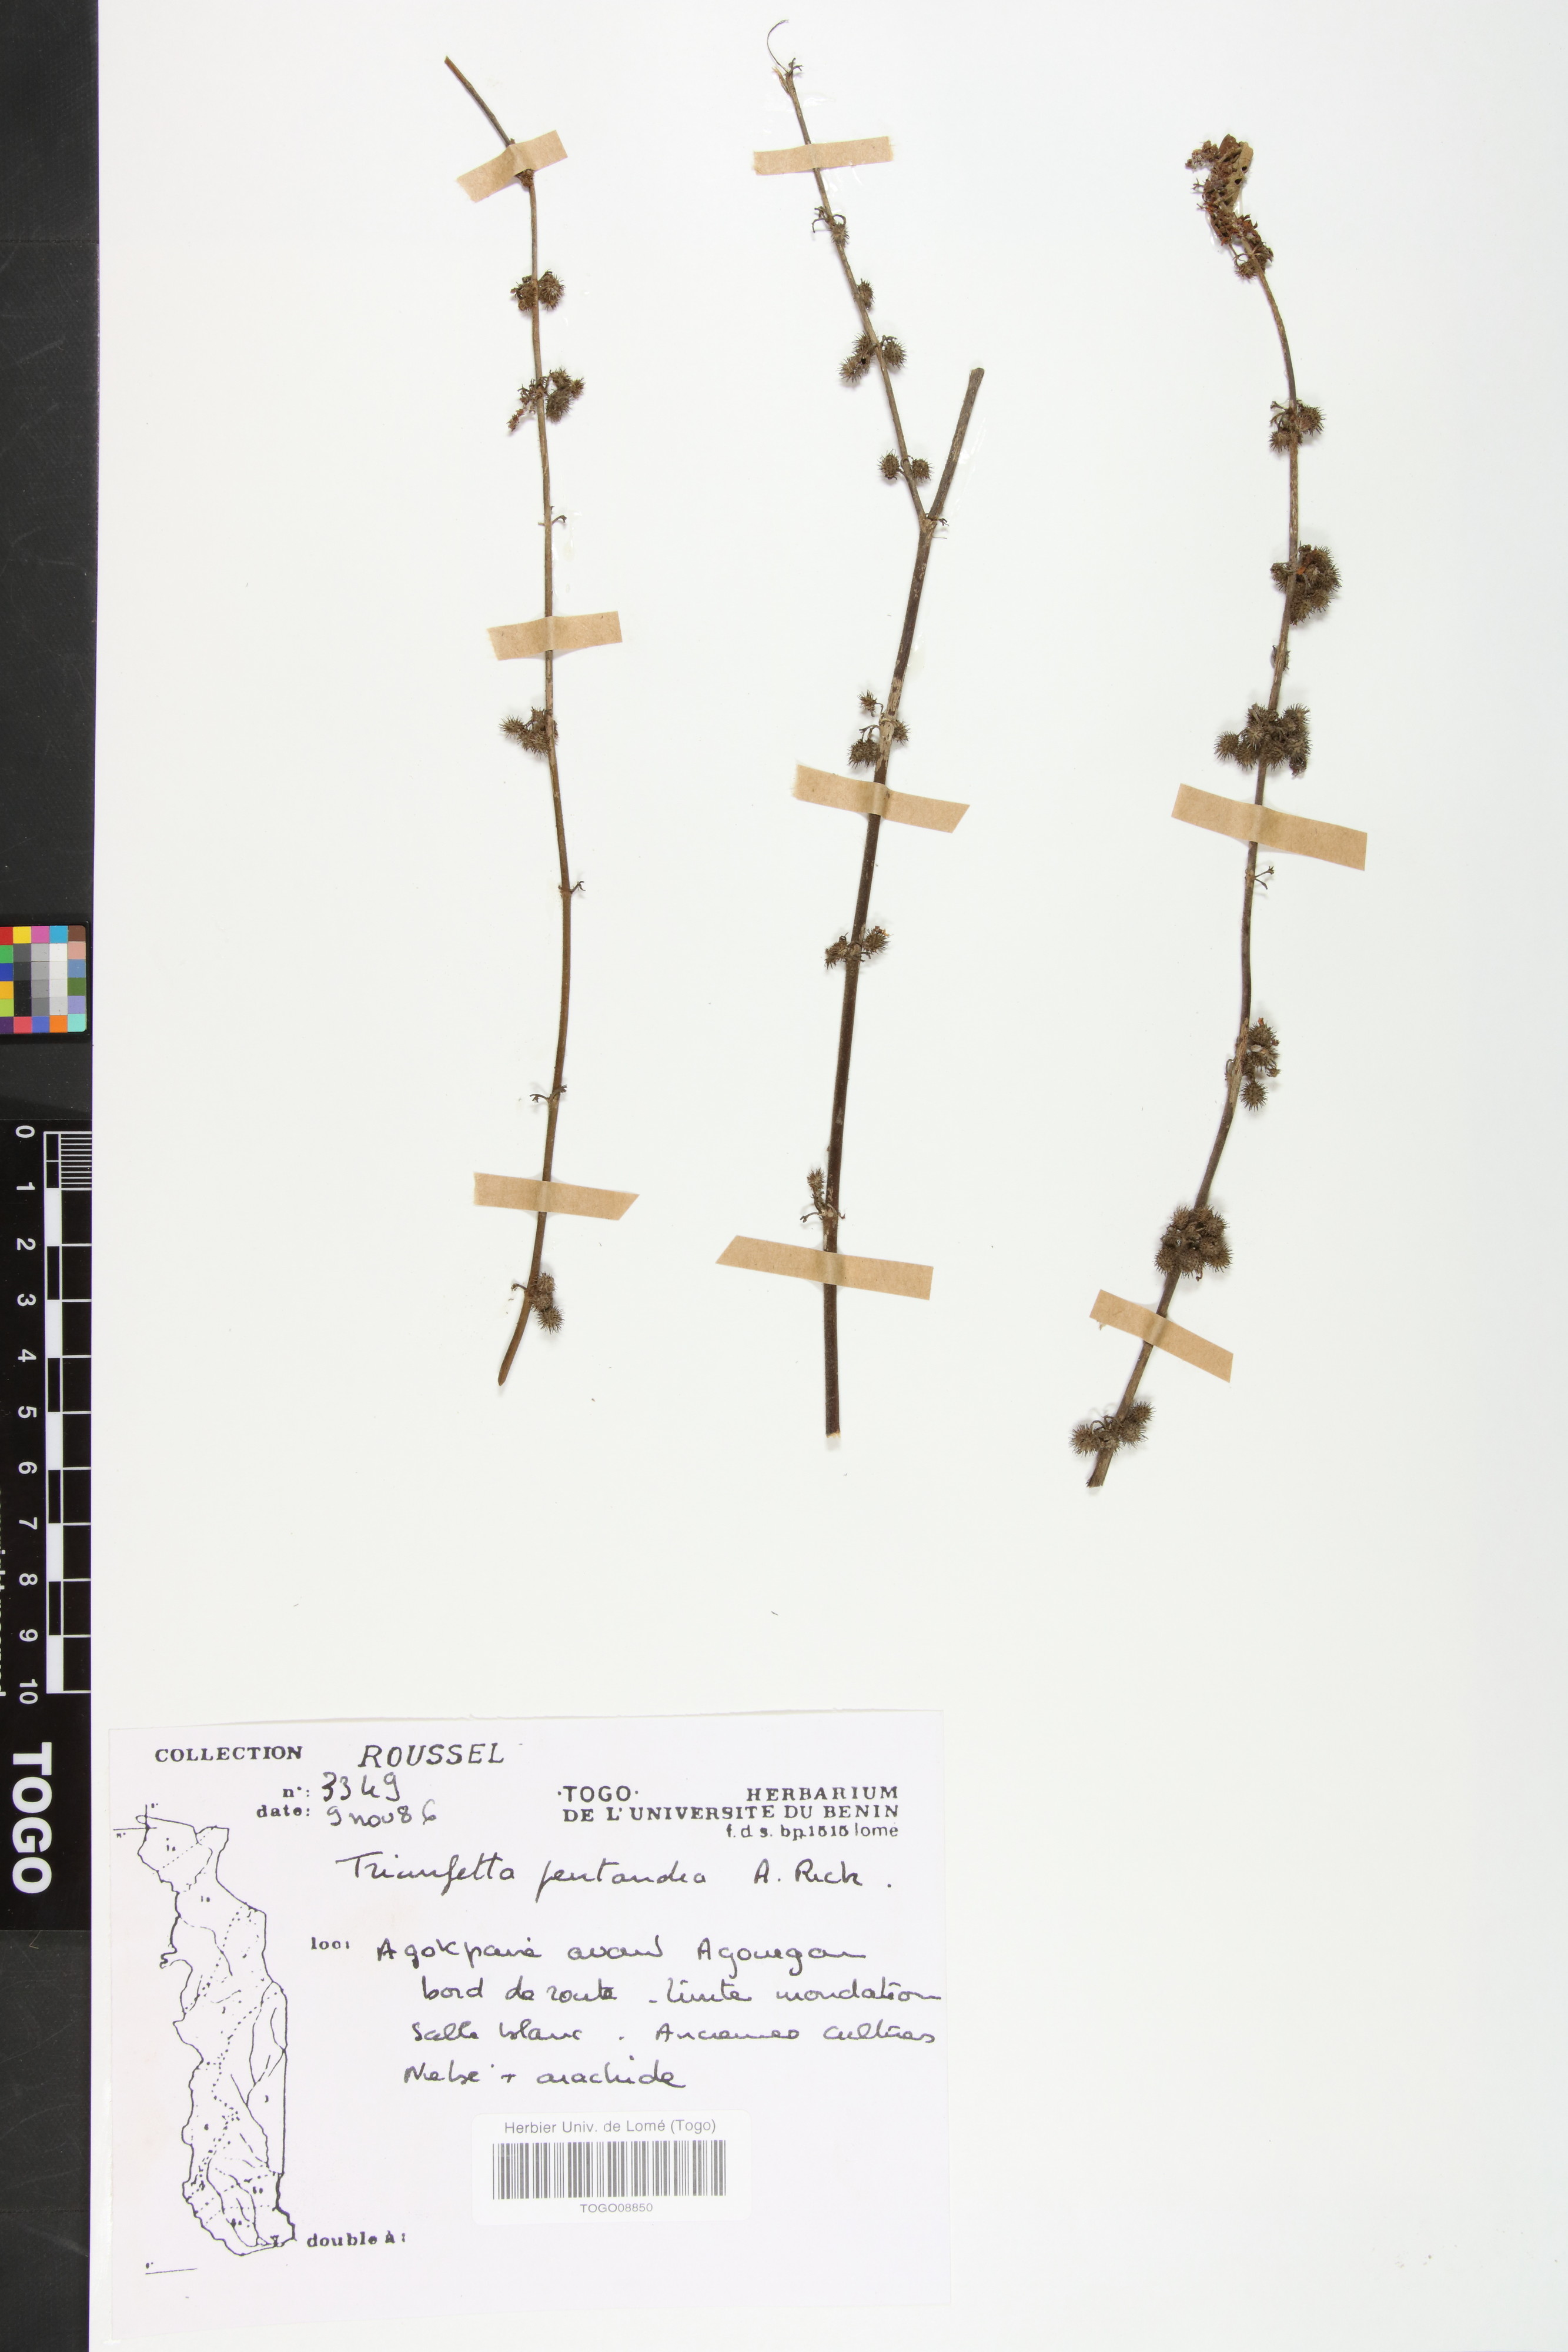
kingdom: Plantae
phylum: Tracheophyta
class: Magnoliopsida
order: Malvales
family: Malvaceae
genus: Triumfetta
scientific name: Triumfetta pentandra
